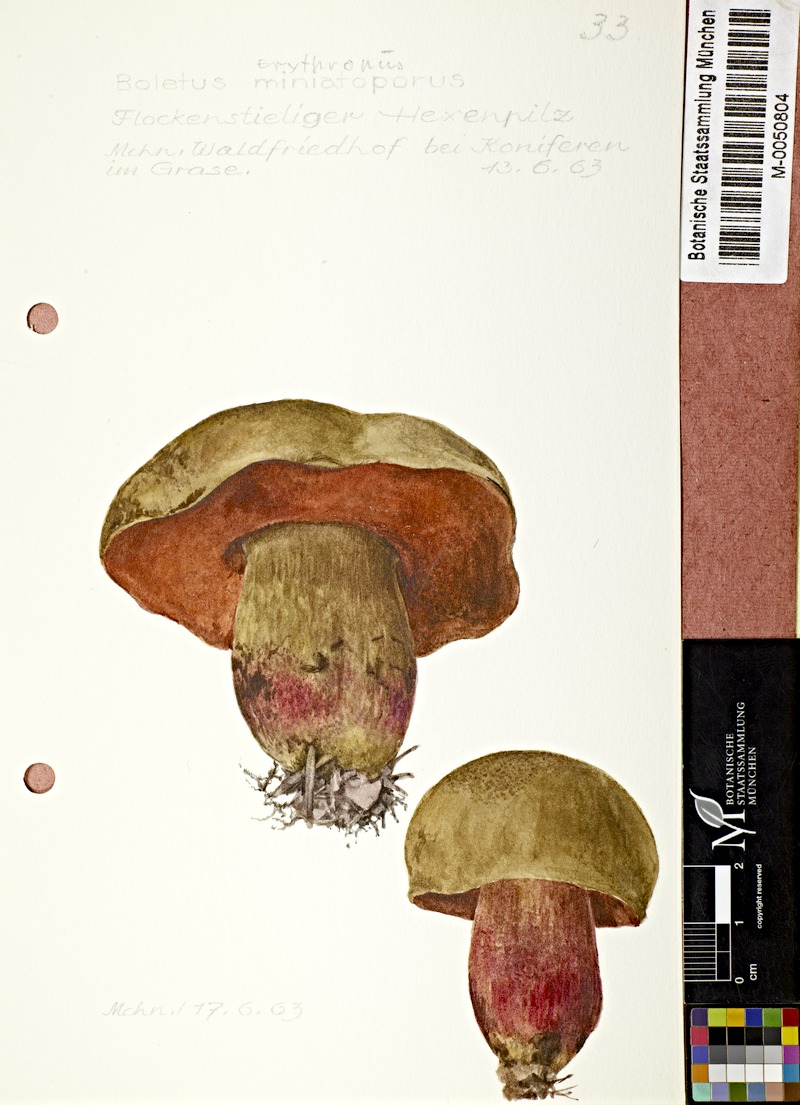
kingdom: Fungi
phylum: Basidiomycota
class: Agaricomycetes
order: Boletales
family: Boletaceae
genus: Neoboletus
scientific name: Neoboletus erythropus
